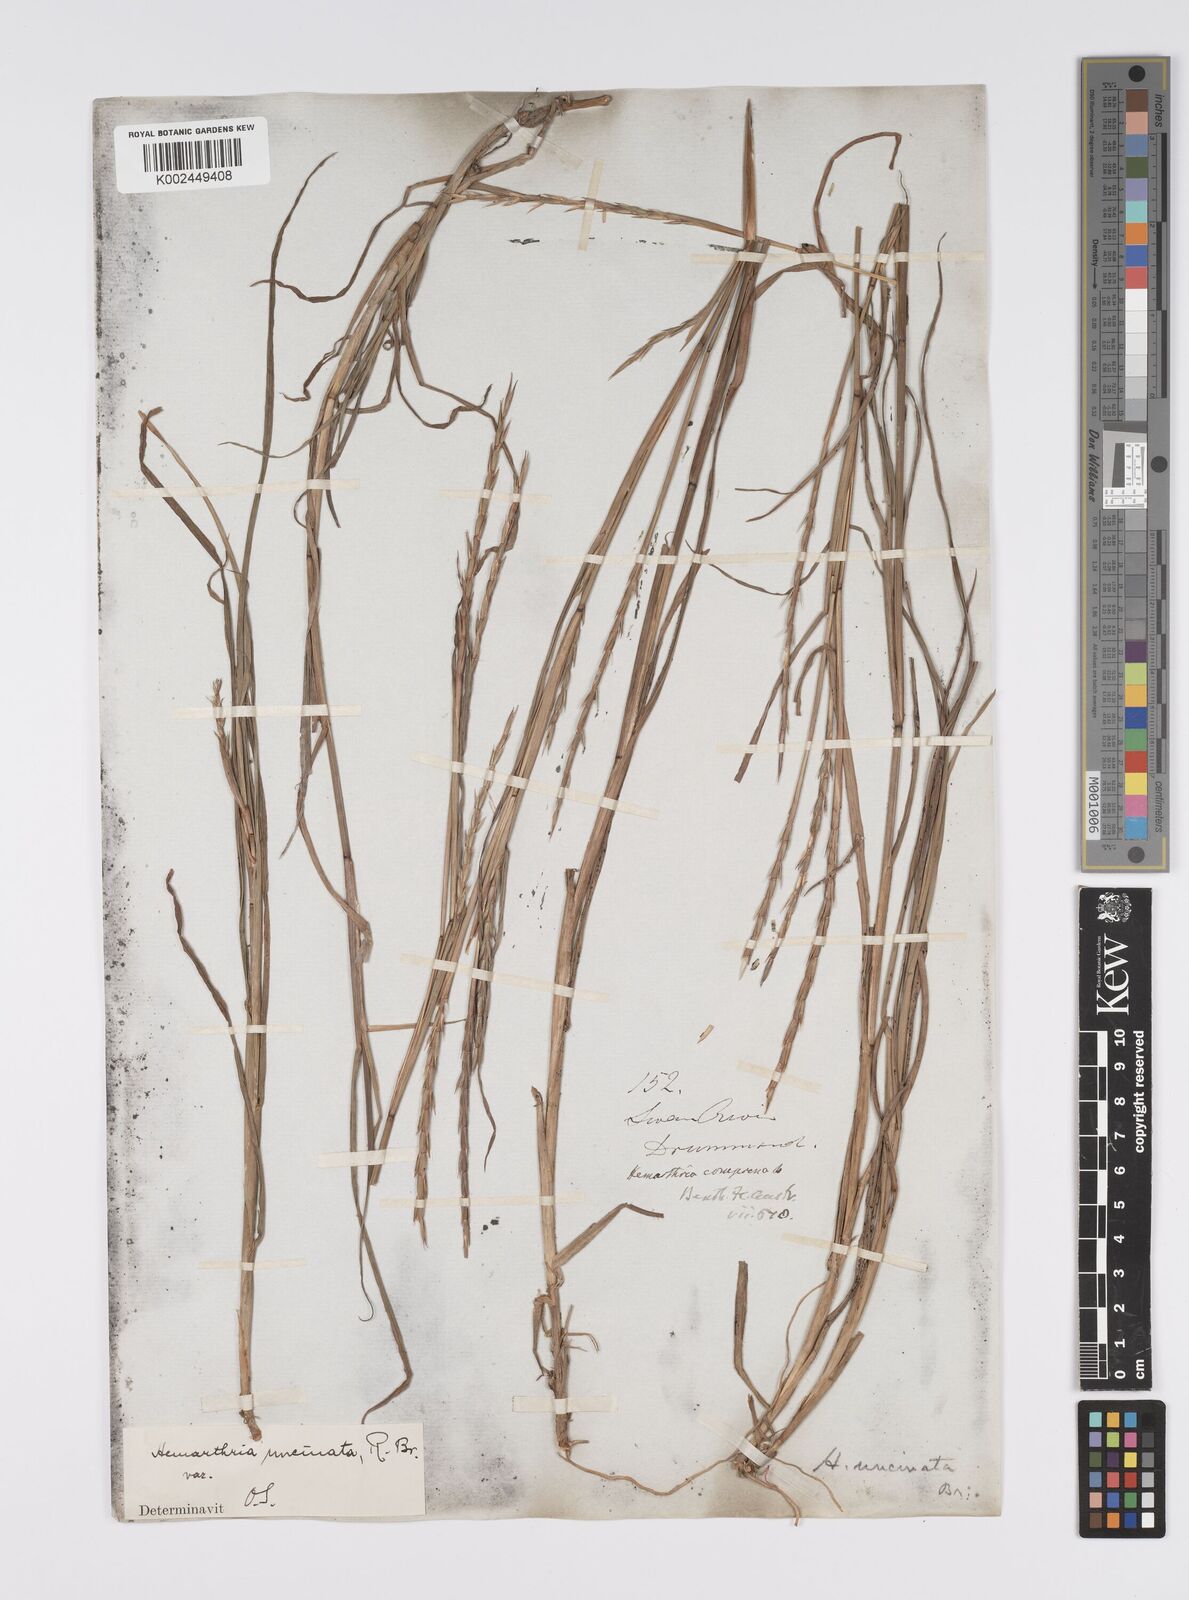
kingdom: Plantae
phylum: Tracheophyta
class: Liliopsida
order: Poales
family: Poaceae
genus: Hemarthria
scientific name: Hemarthria uncinata
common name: Matgrass
